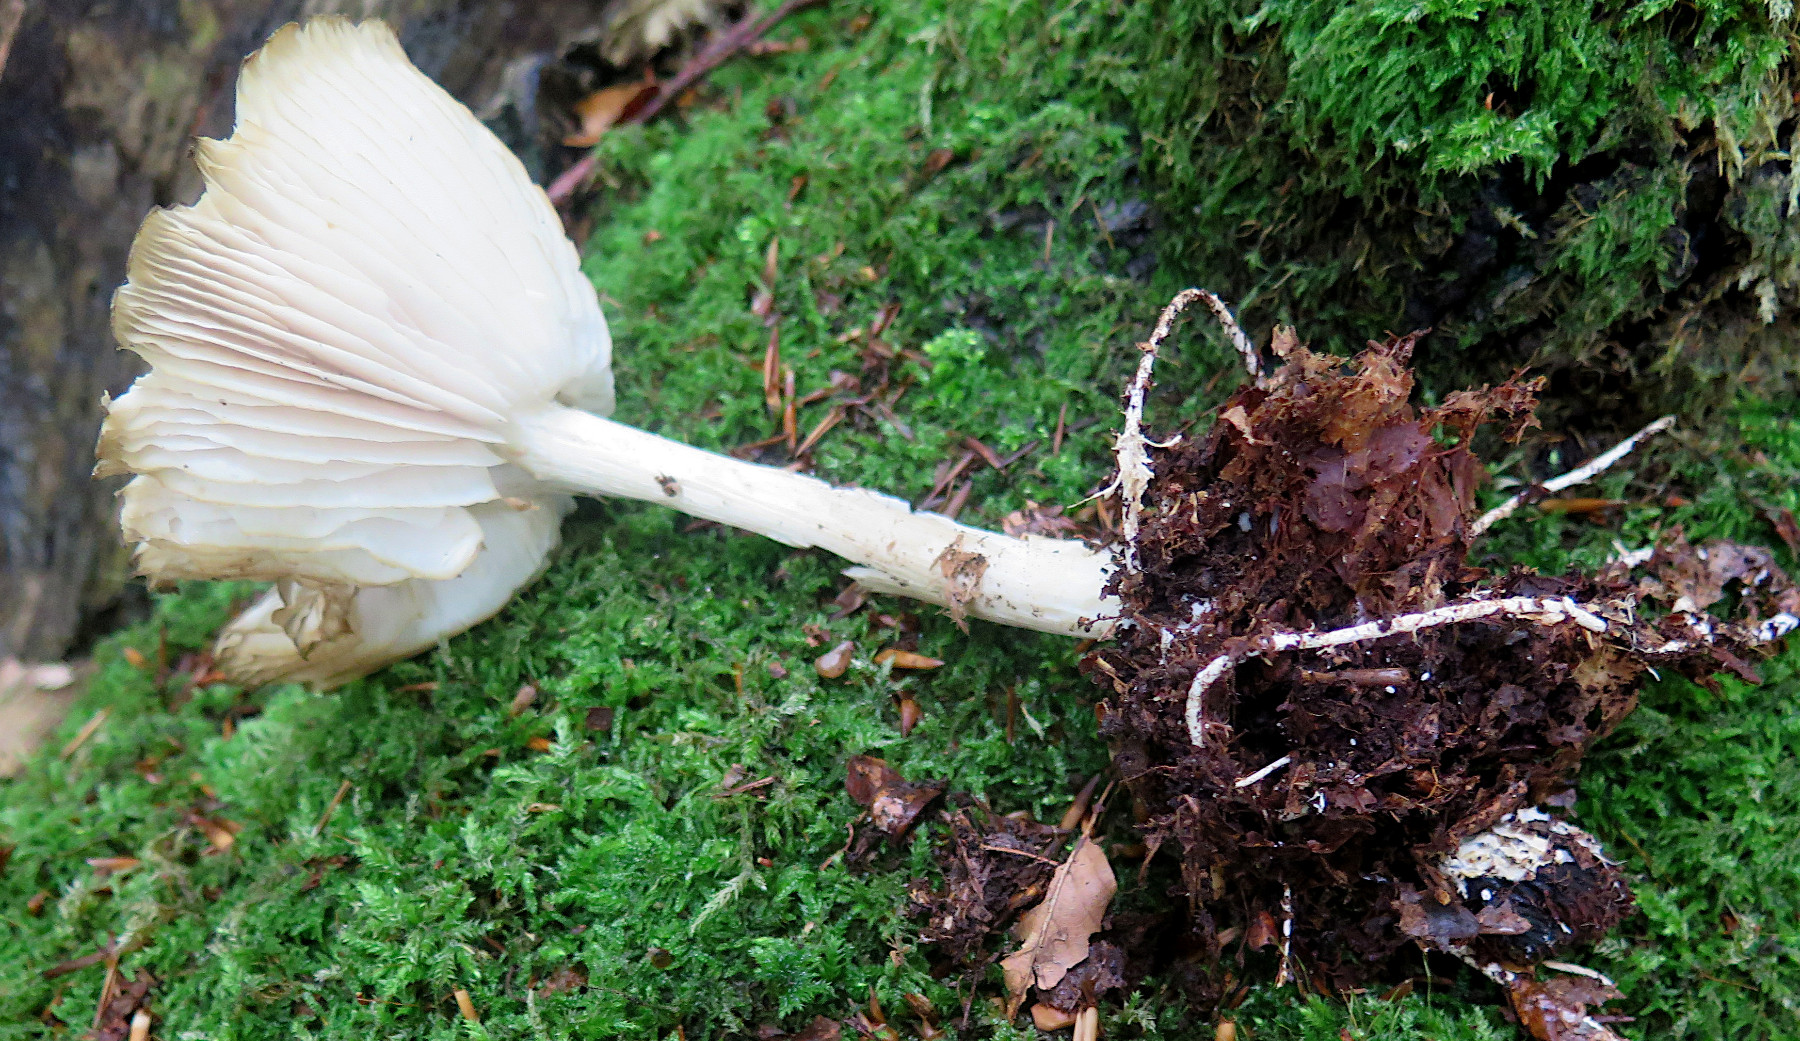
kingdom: Fungi
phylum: Basidiomycota
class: Agaricomycetes
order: Agaricales
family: Tricholomataceae
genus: Megacollybia
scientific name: Megacollybia platyphylla
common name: bredbladet væbnerhat
